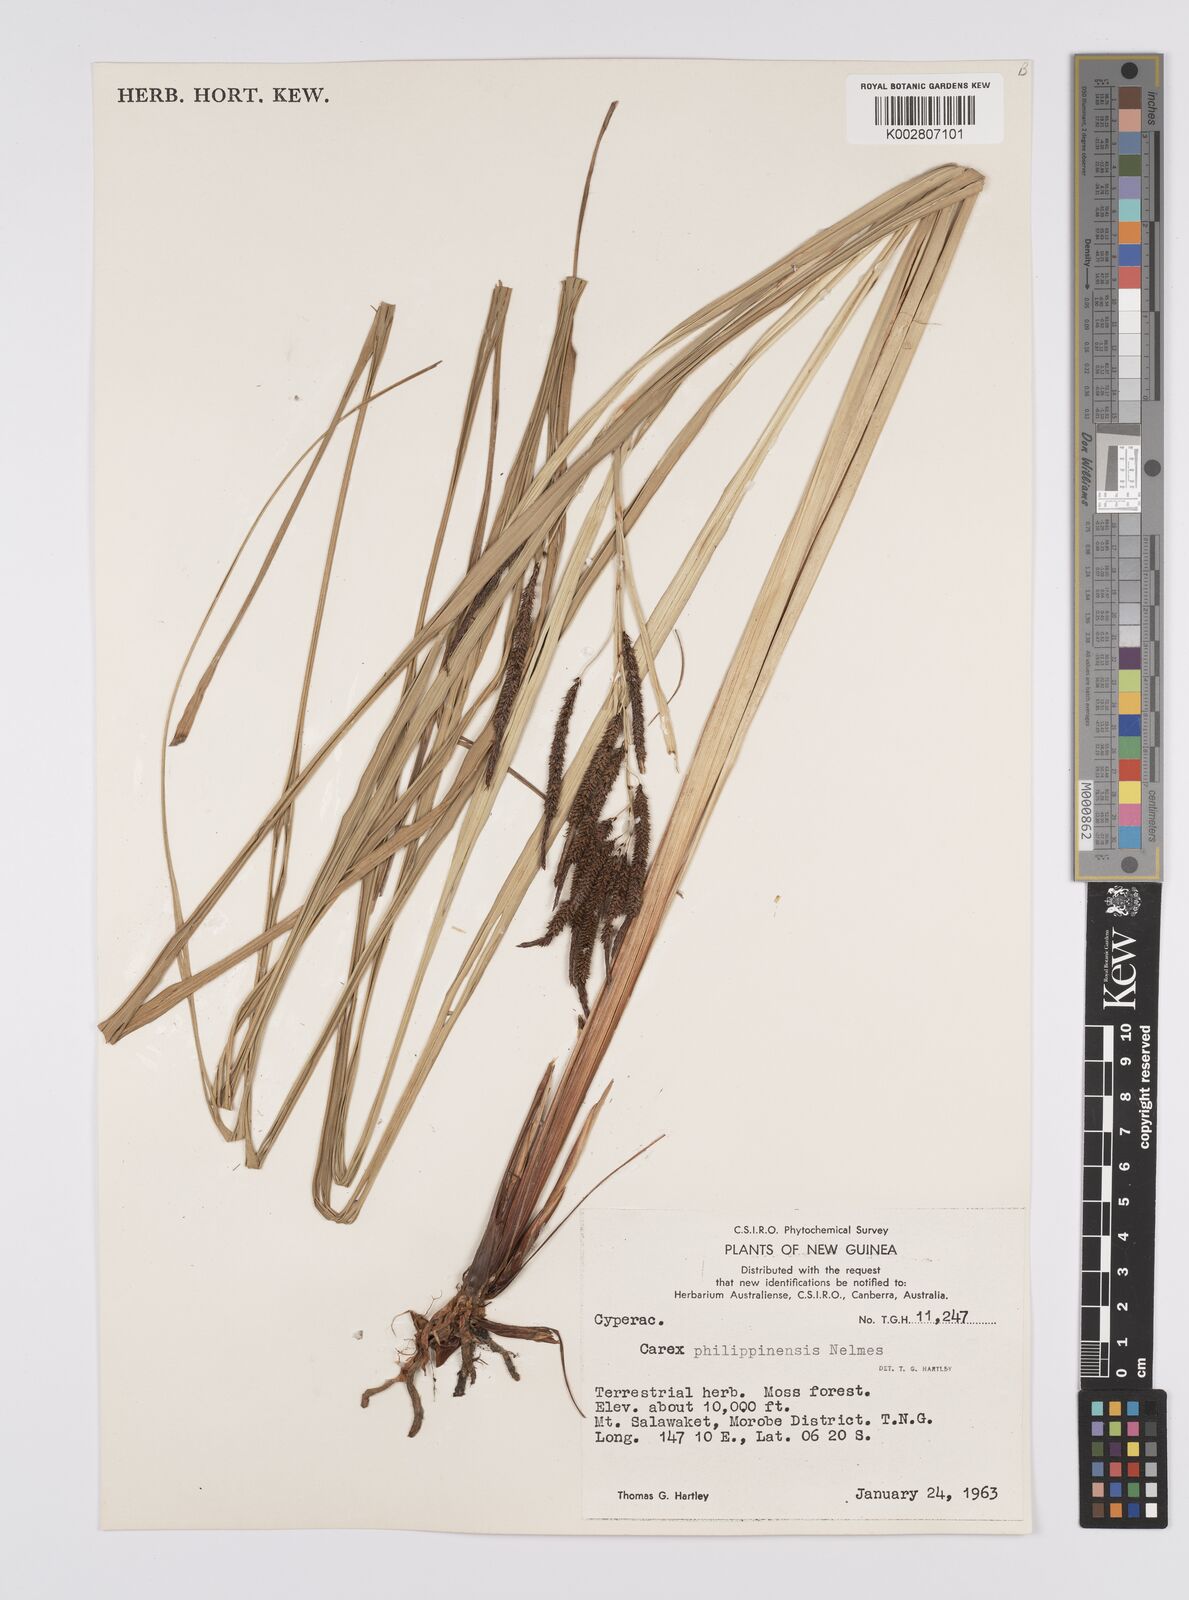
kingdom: Plantae
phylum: Tracheophyta
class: Liliopsida
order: Poales
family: Cyperaceae
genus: Carex
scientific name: Carex graeffeana
